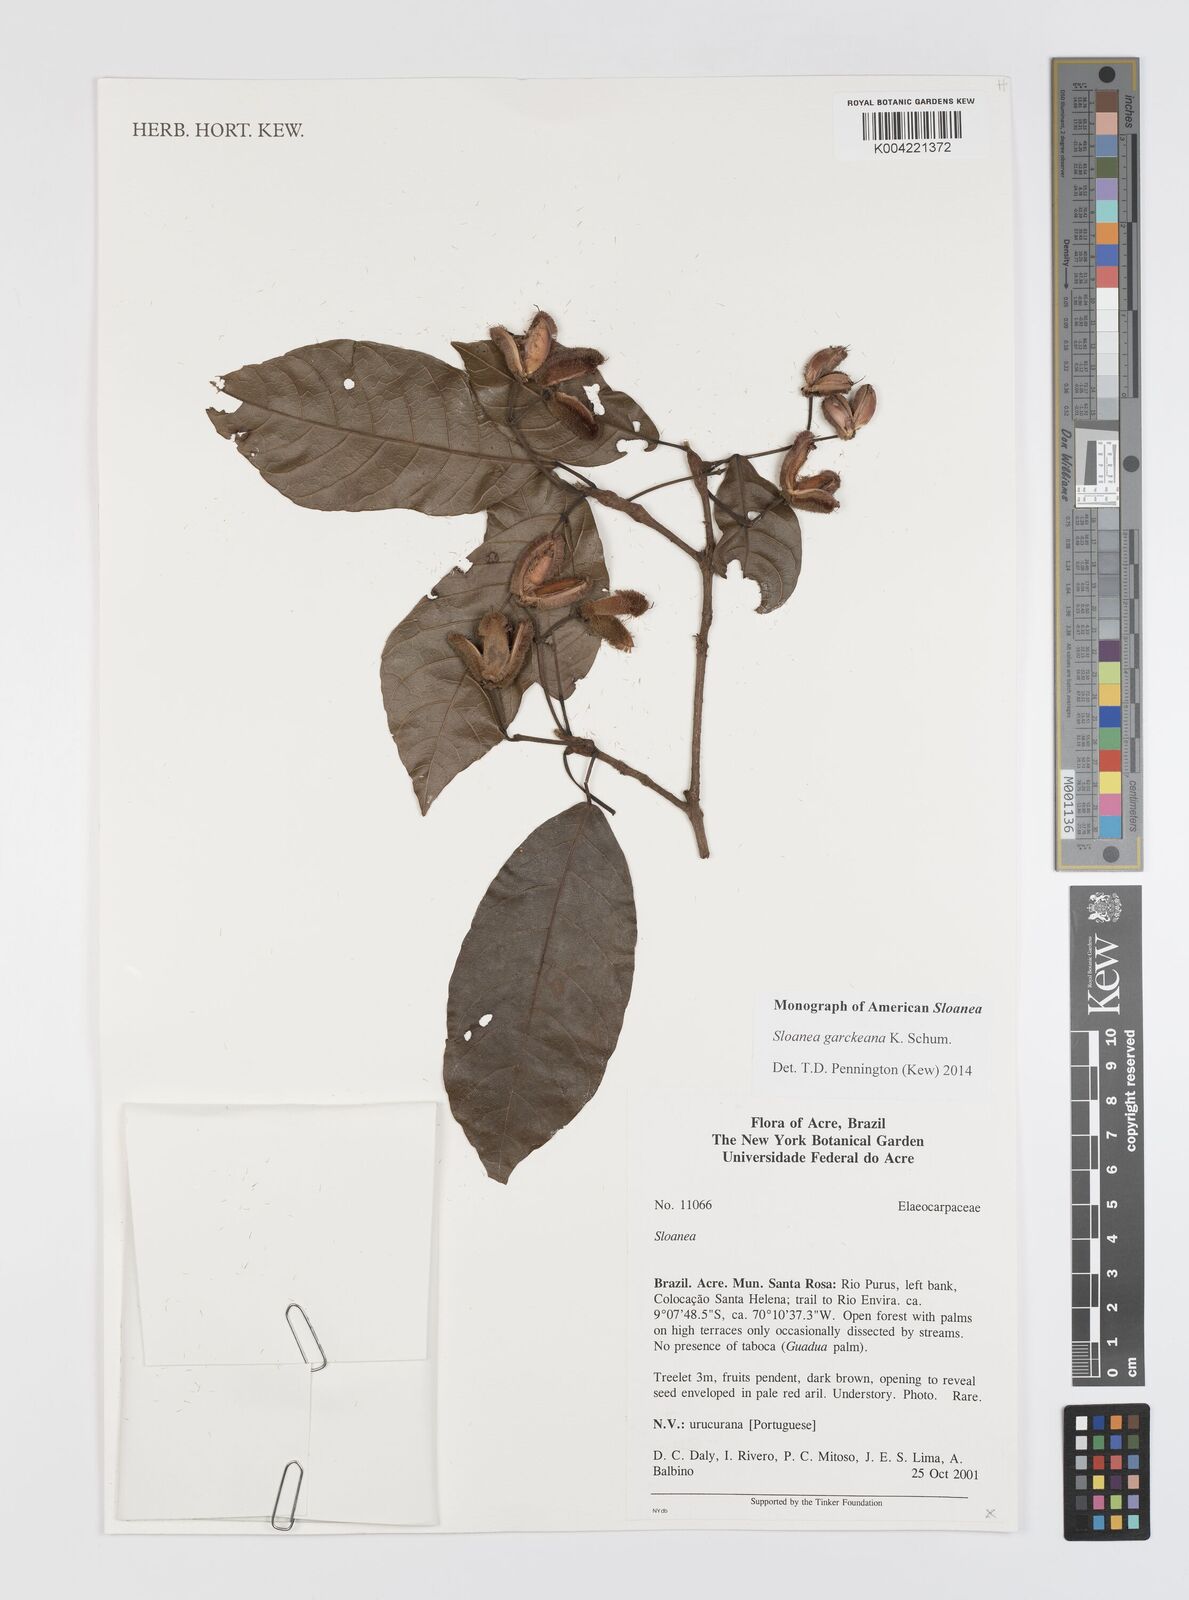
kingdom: Plantae
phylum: Tracheophyta
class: Magnoliopsida
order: Oxalidales
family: Elaeocarpaceae
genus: Sloanea
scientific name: Sloanea garckeana
